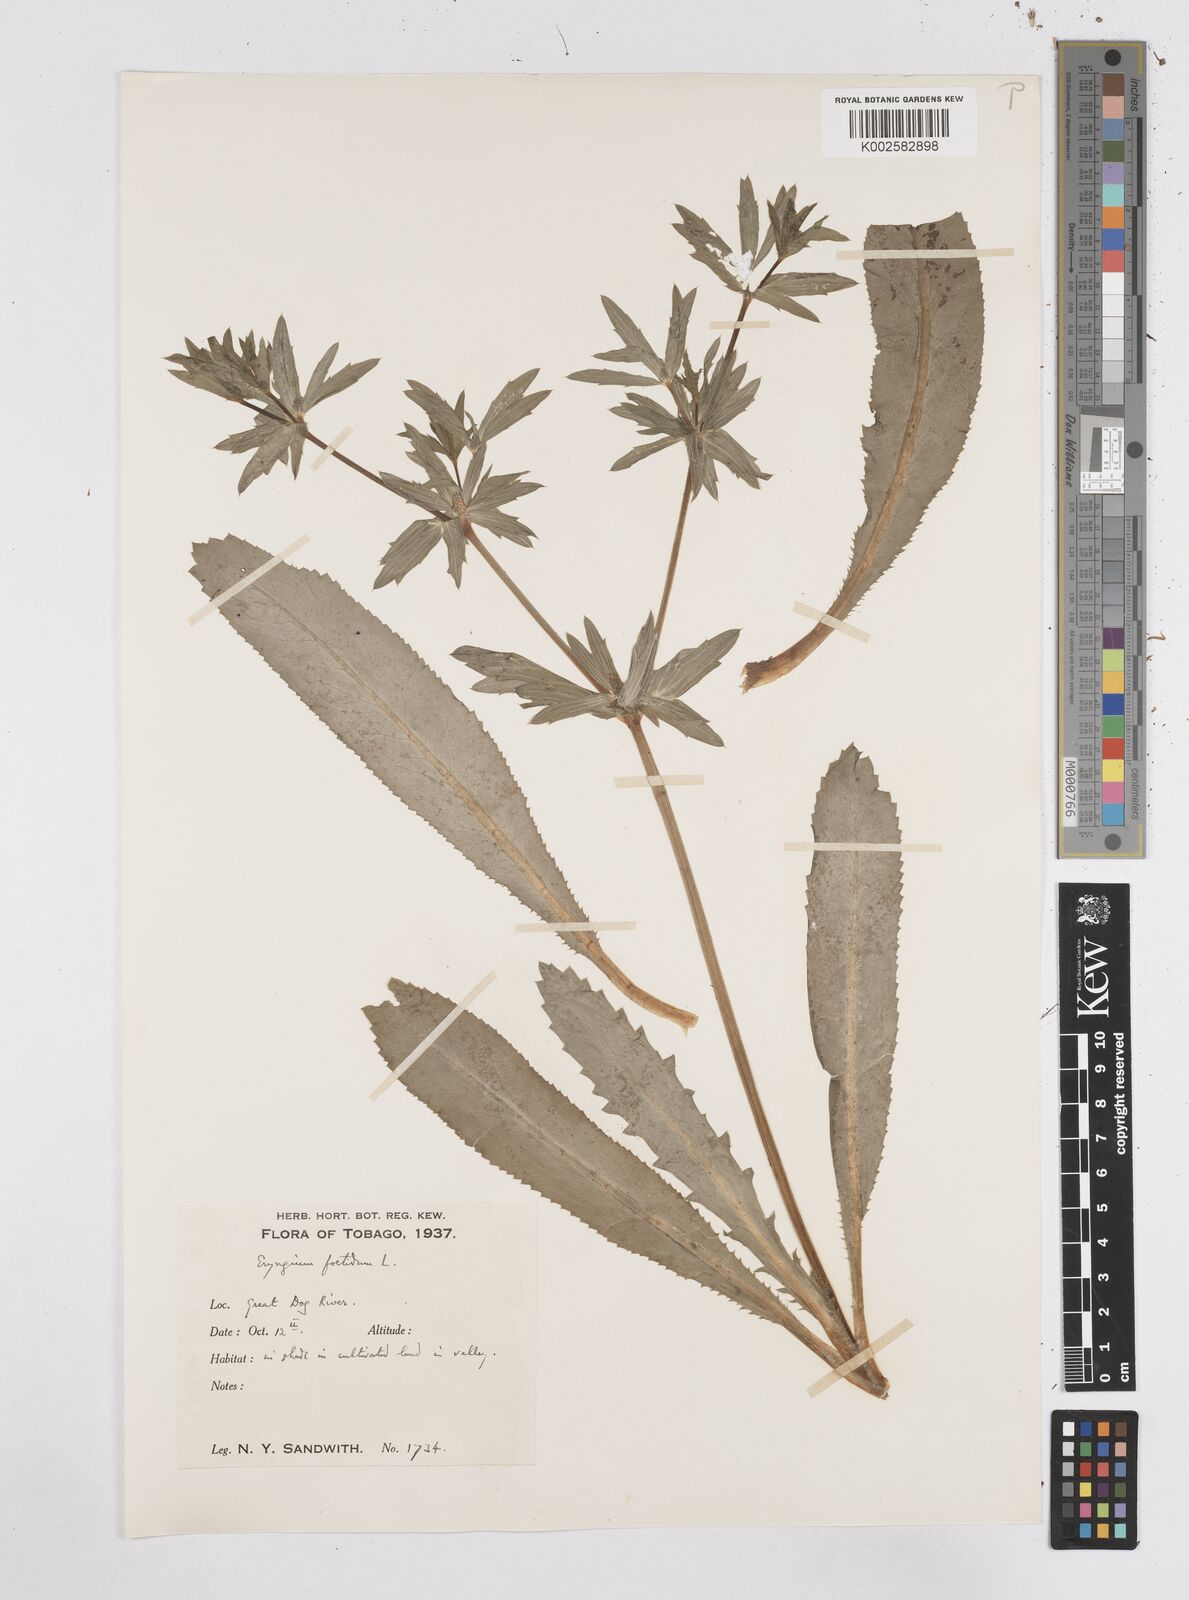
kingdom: Plantae
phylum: Tracheophyta
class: Magnoliopsida
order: Apiales
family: Apiaceae
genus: Eryngium
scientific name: Eryngium foetidum
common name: Fitweed
